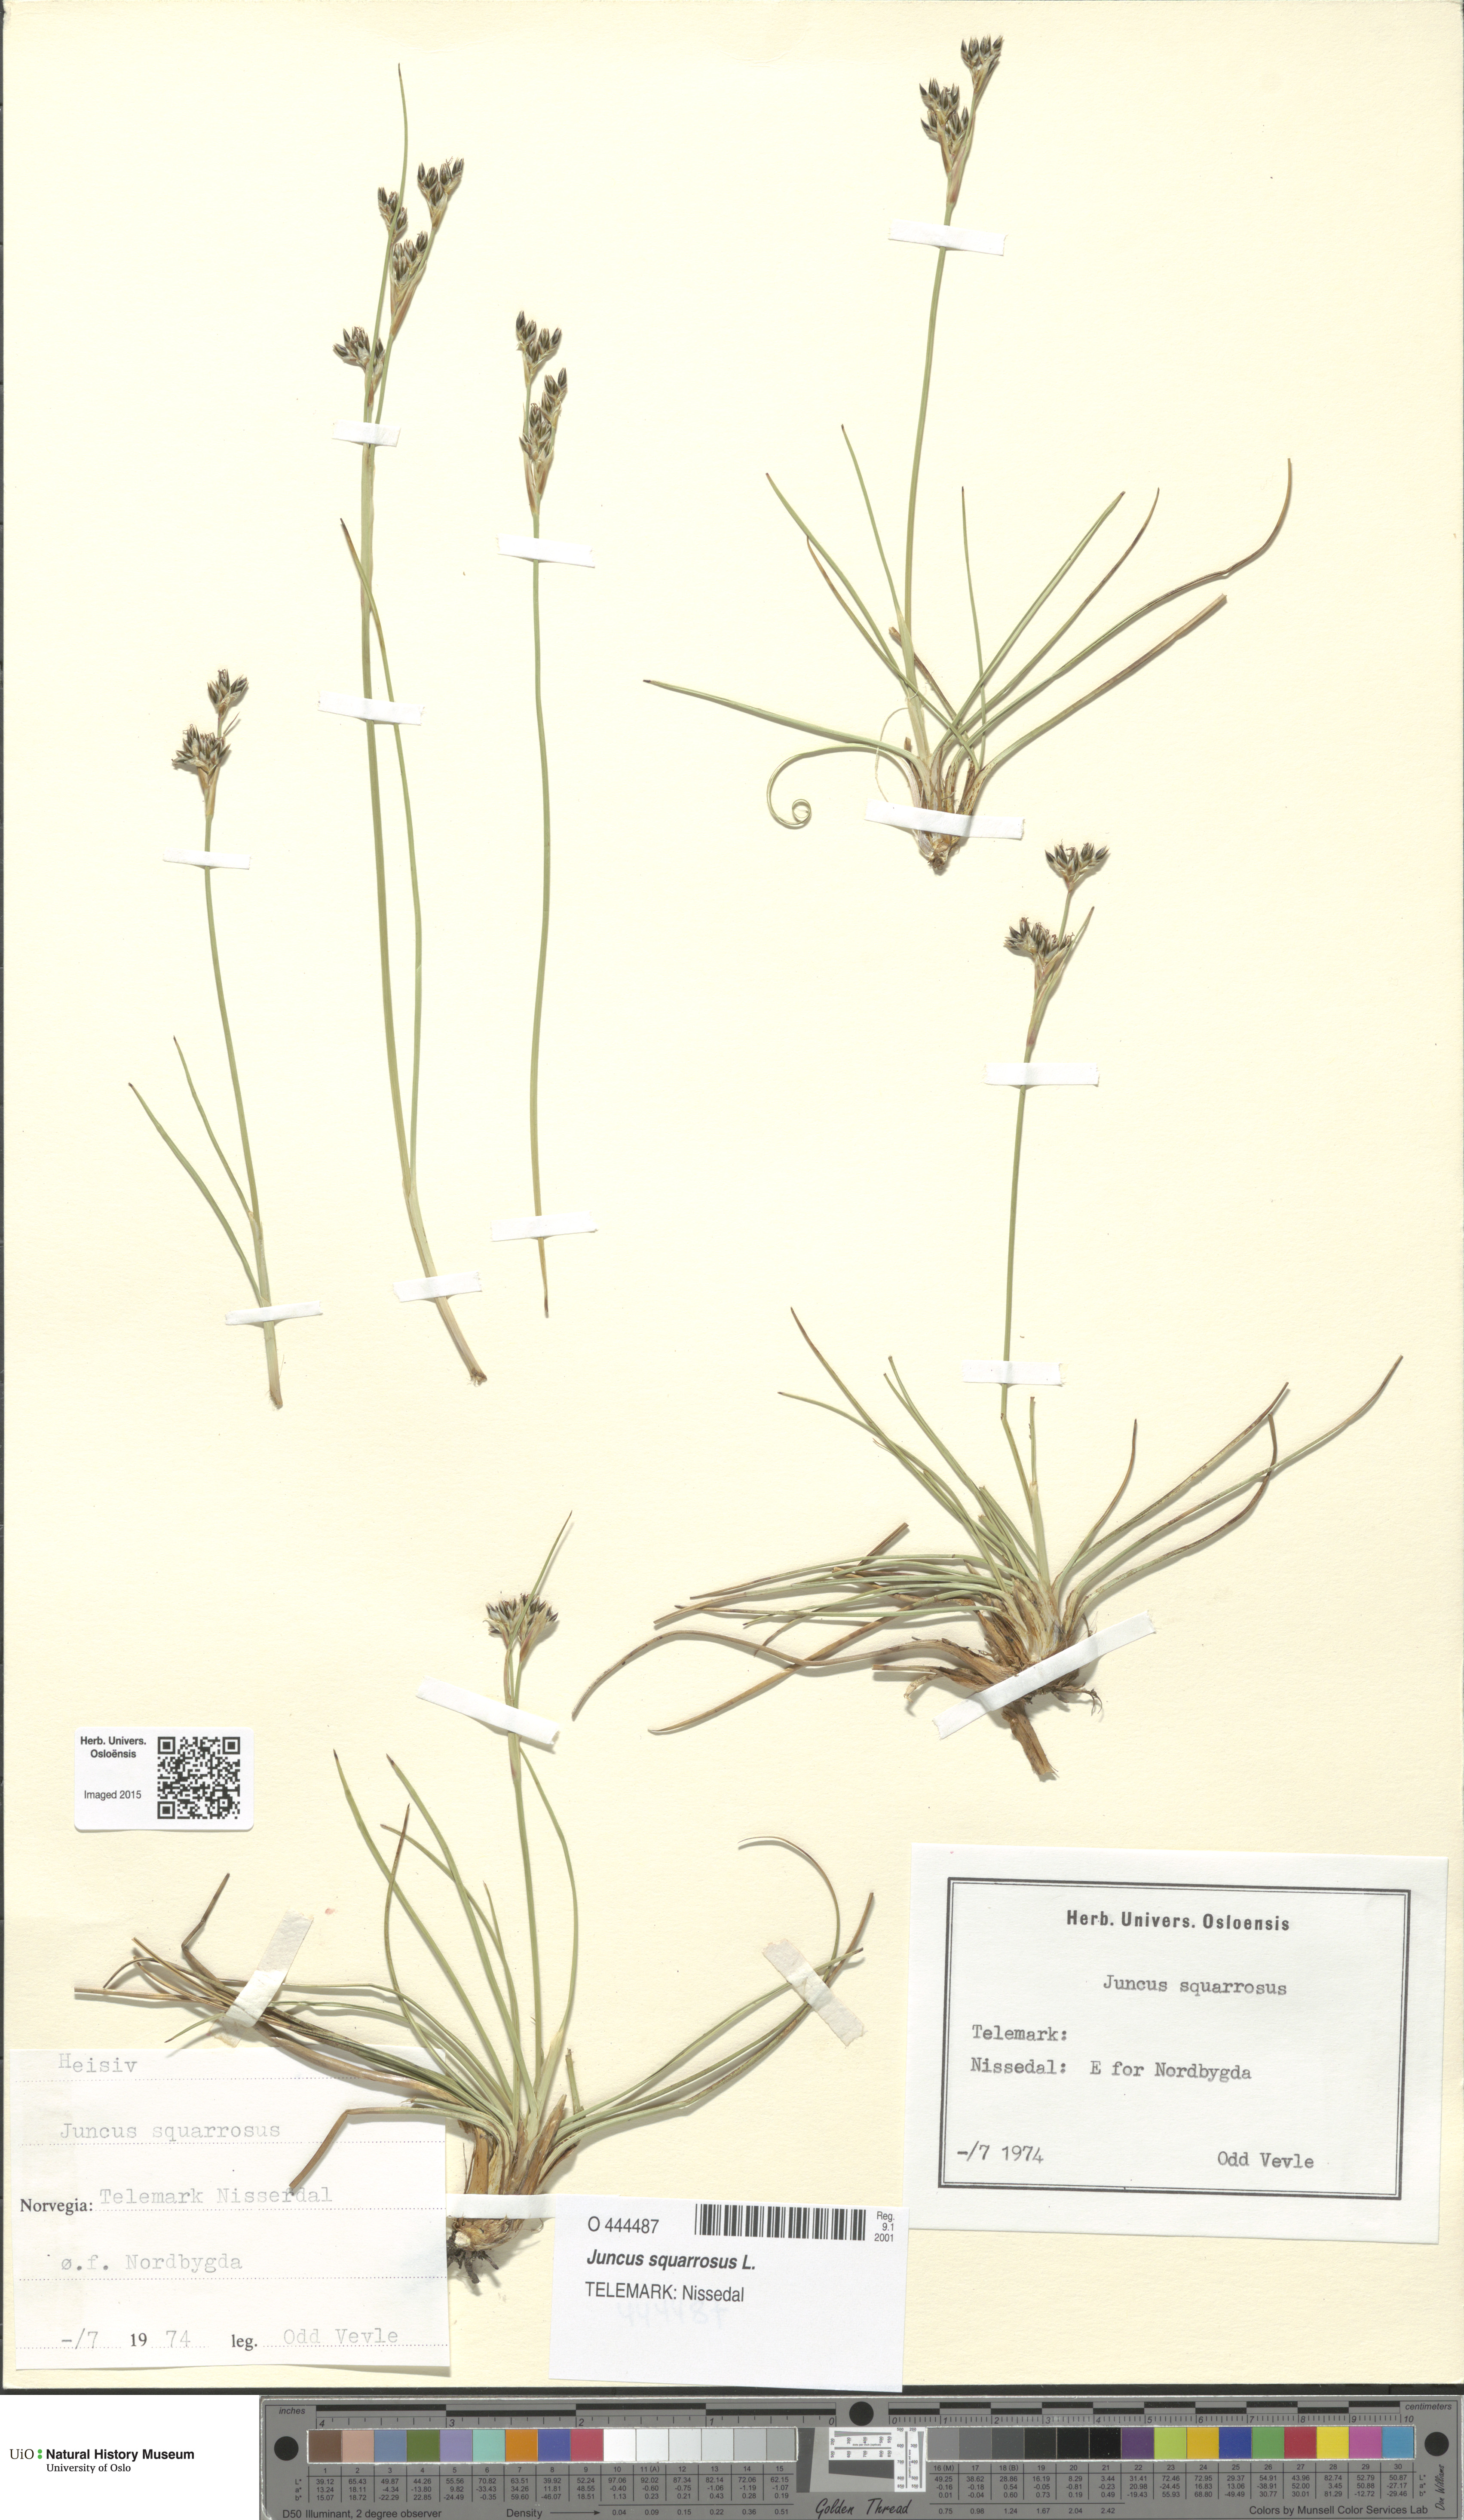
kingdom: Plantae
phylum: Tracheophyta
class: Liliopsida
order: Poales
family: Juncaceae
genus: Juncus
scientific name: Juncus squarrosus
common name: Heath rush
